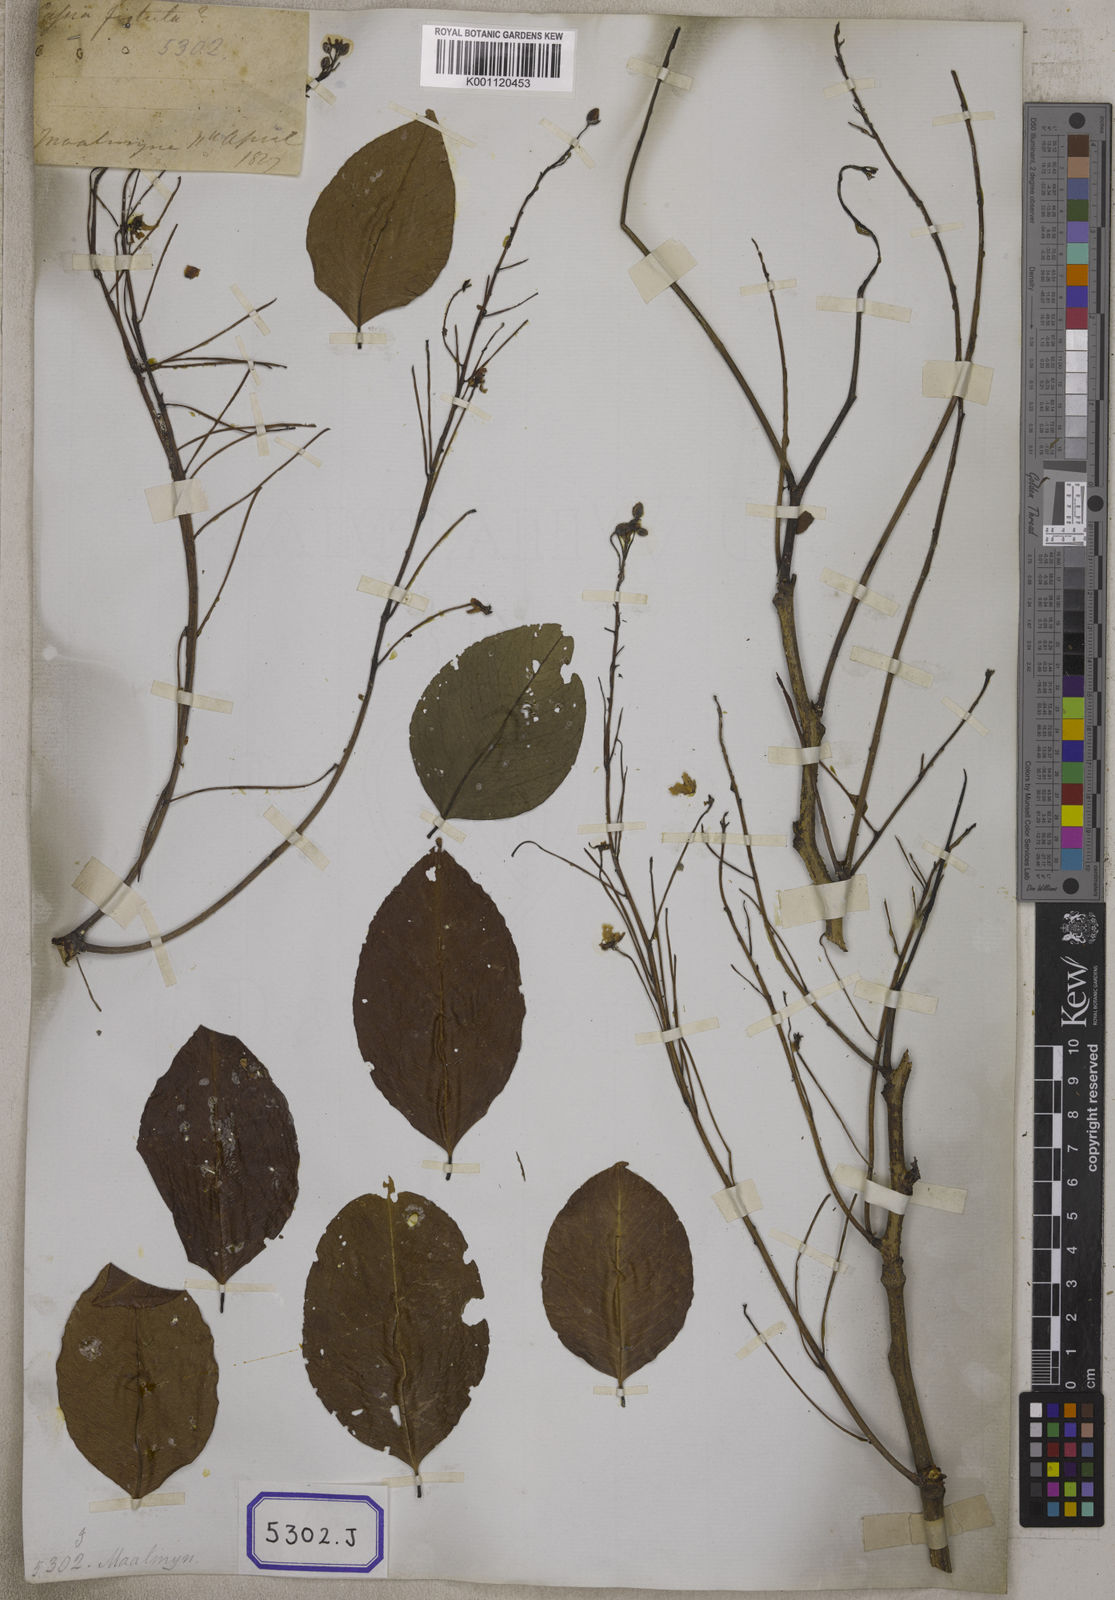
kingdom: Plantae
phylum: Tracheophyta
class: Magnoliopsida
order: Fabales
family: Fabaceae
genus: Cassia
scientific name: Cassia fistula
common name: Golden shower
